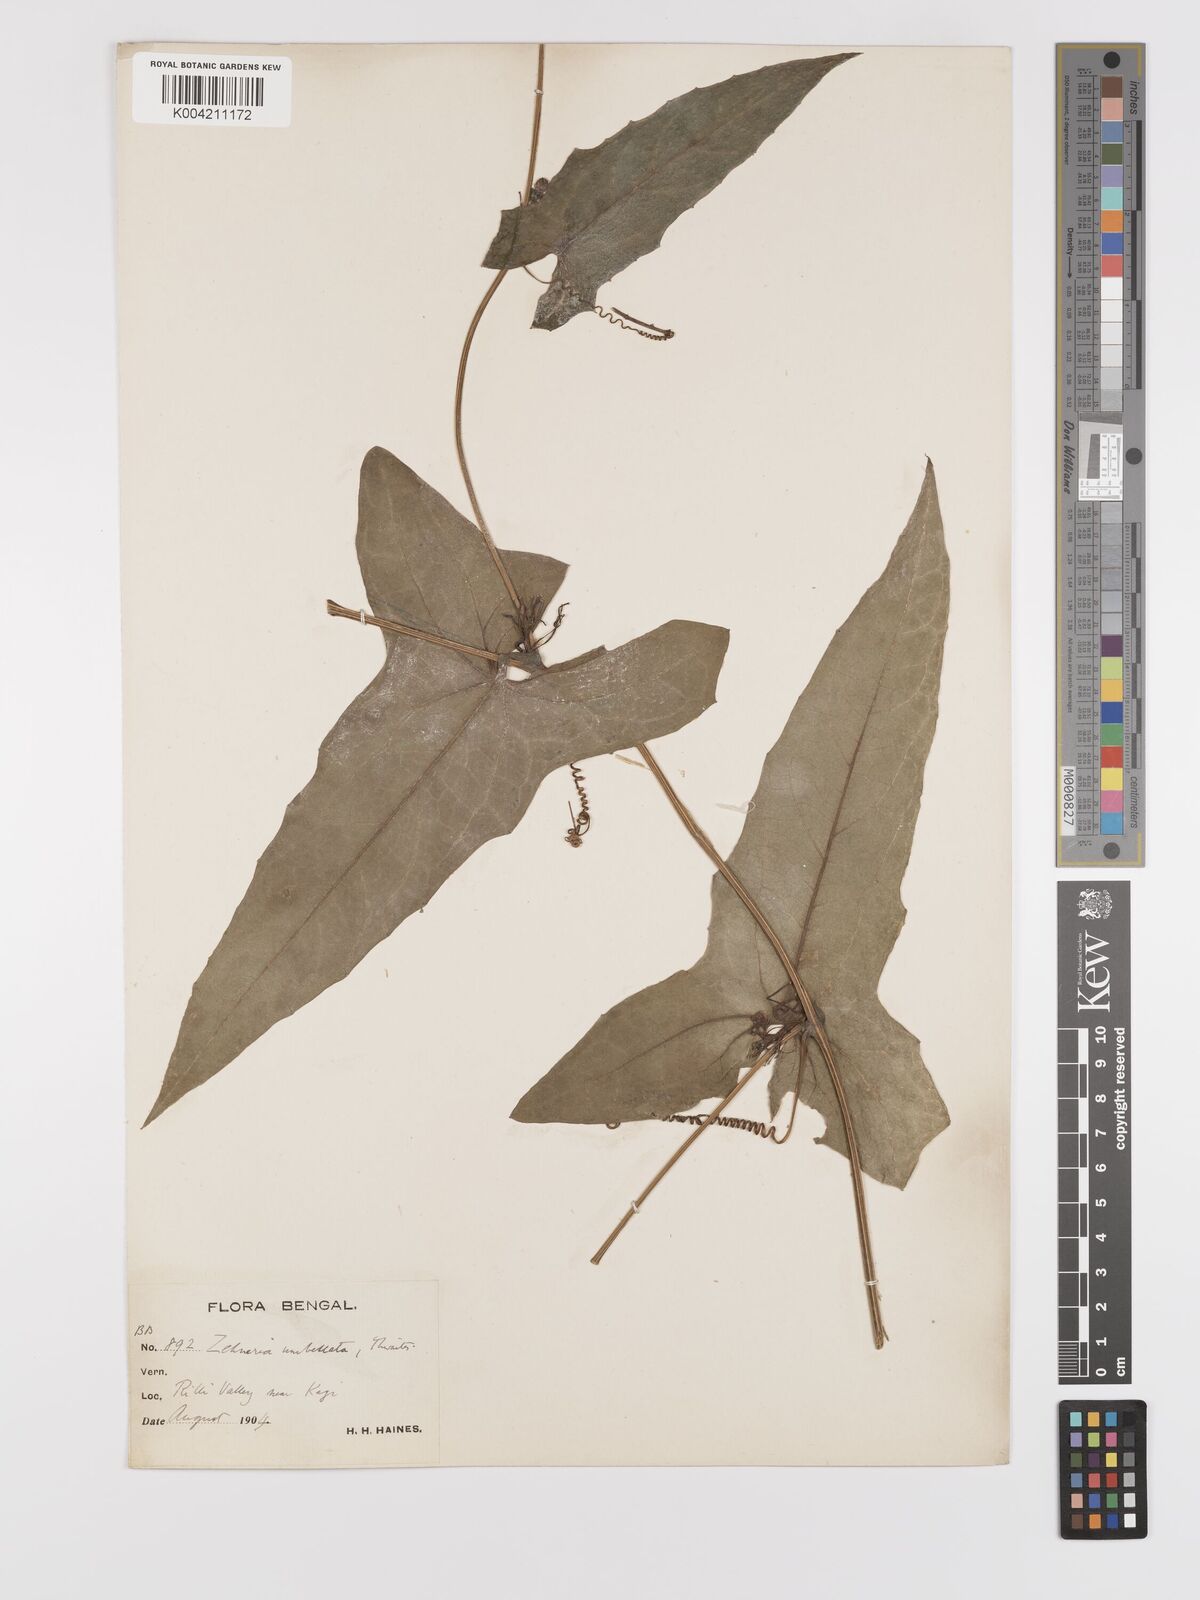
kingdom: Plantae
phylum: Tracheophyta
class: Magnoliopsida
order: Cucurbitales
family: Cucurbitaceae
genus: Solena
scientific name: Solena amplexicaulis
